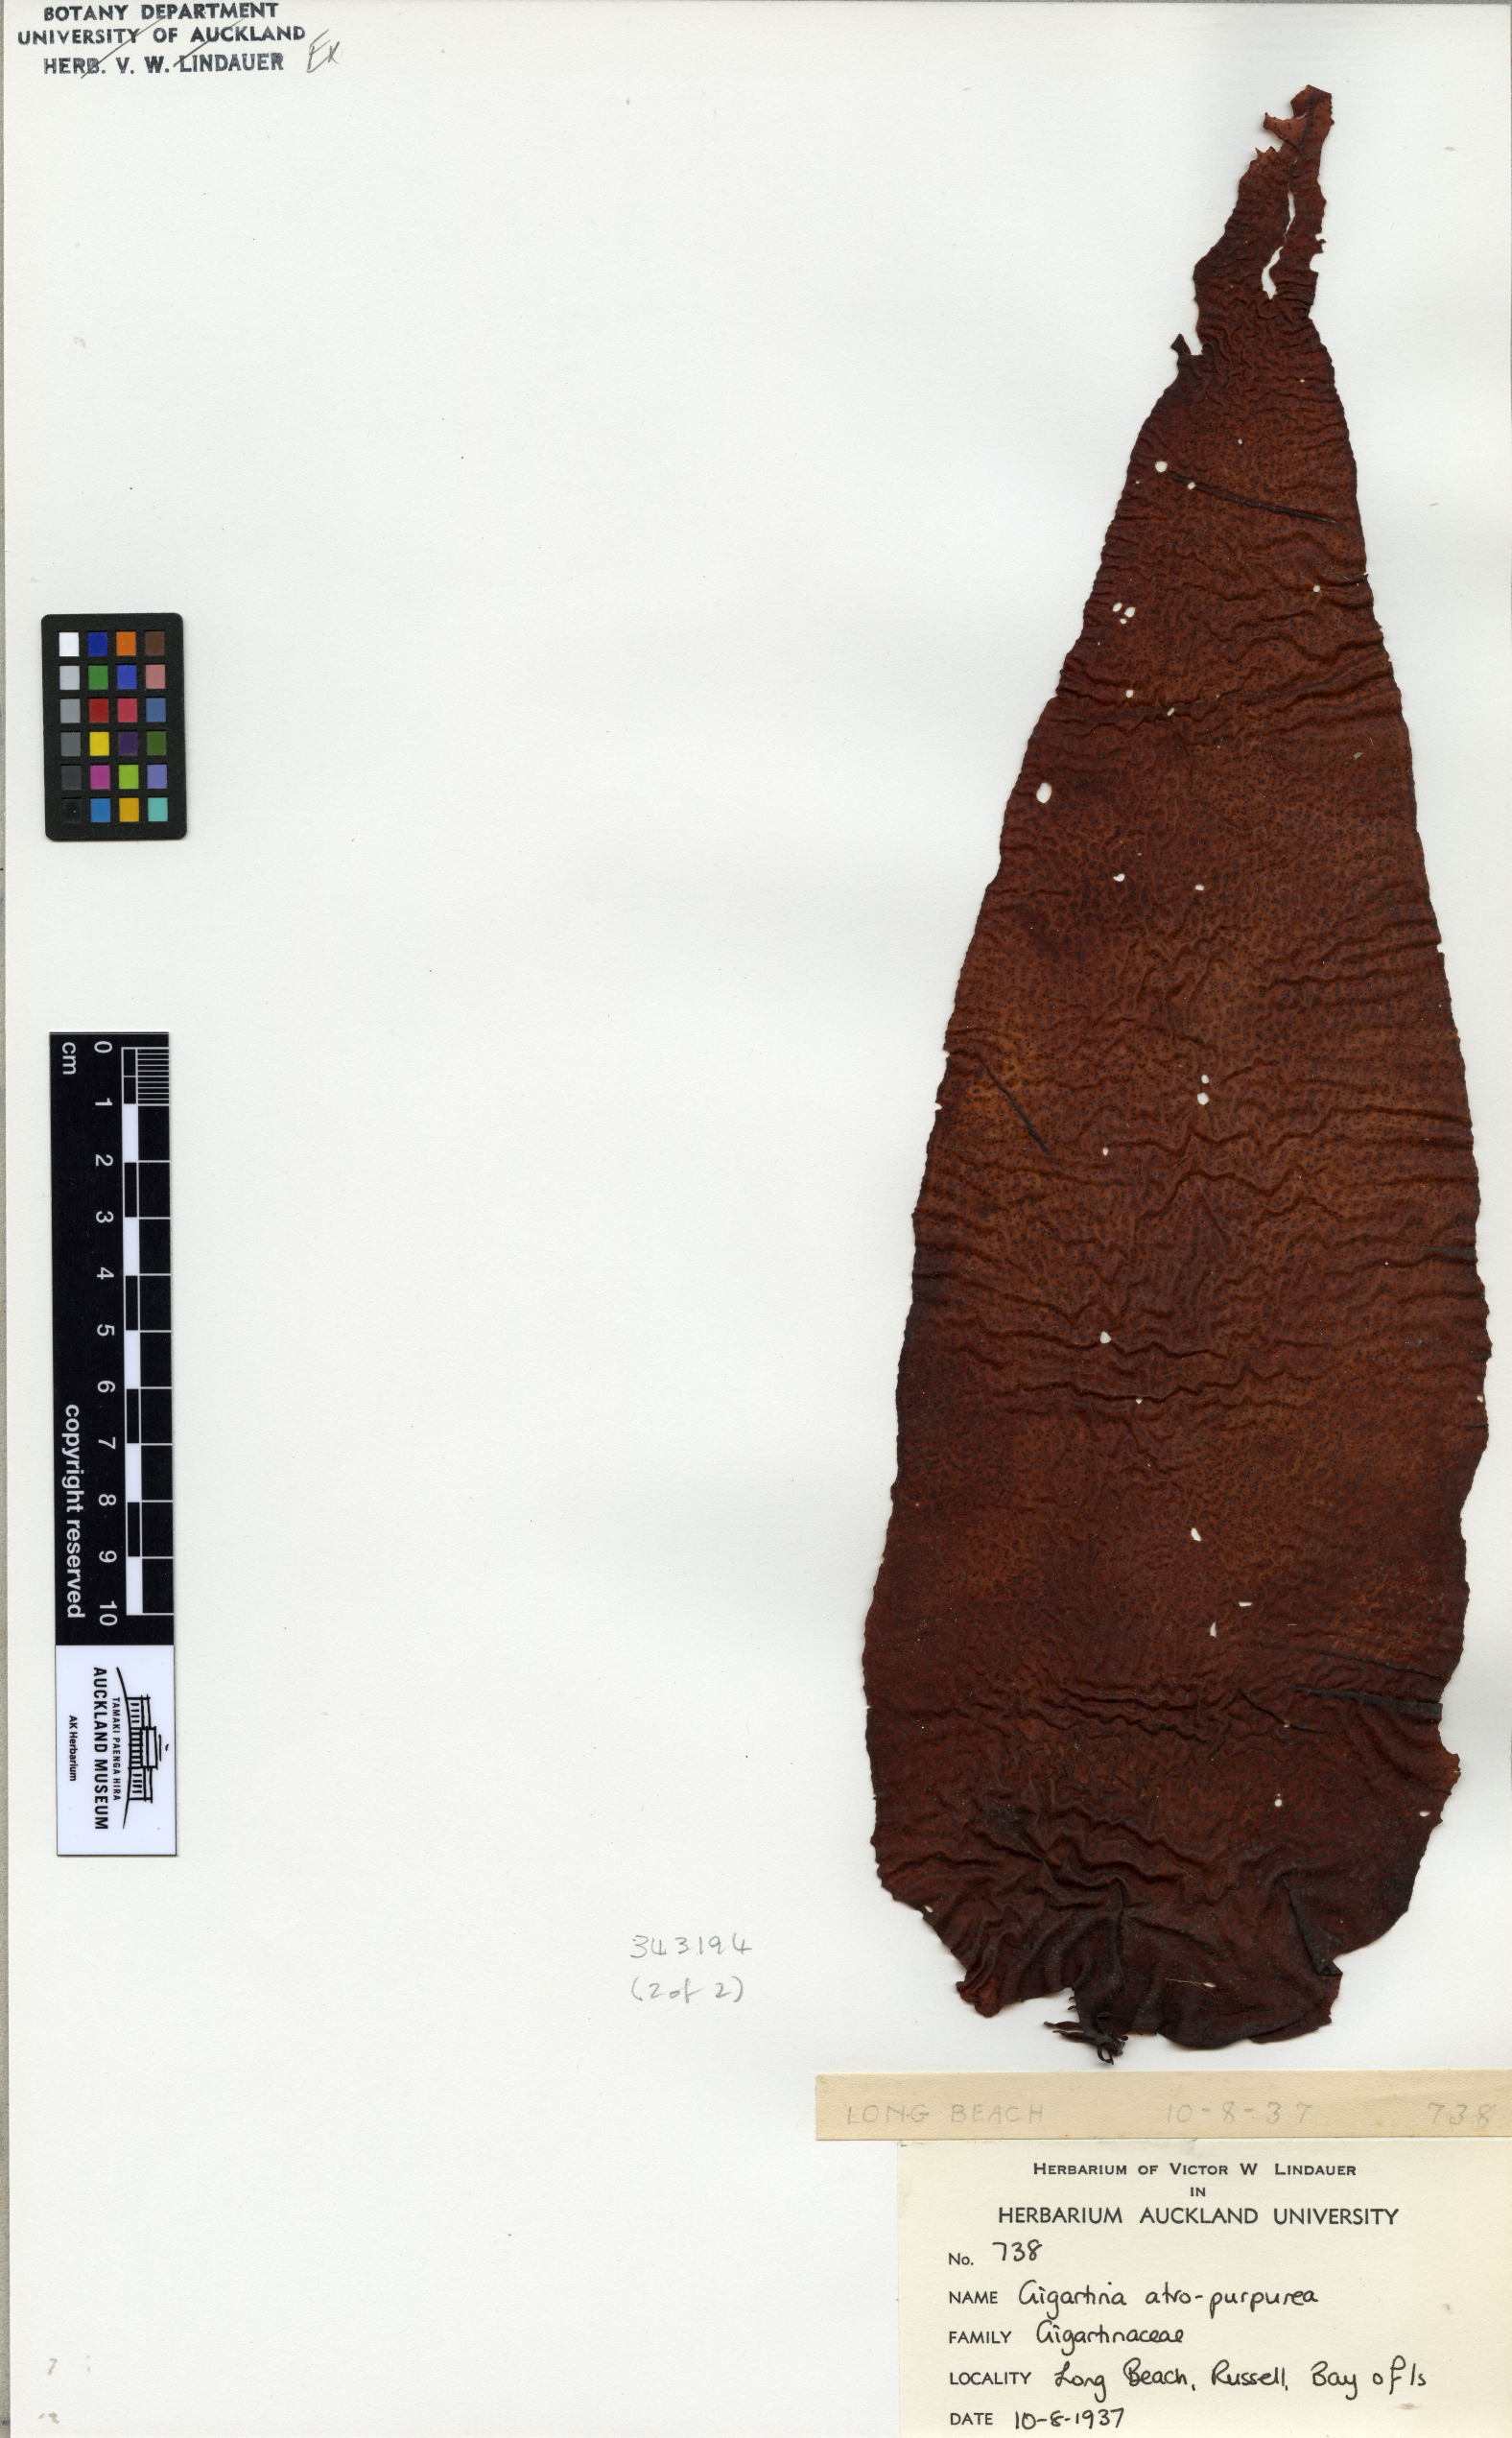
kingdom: Plantae
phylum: Rhodophyta
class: Florideophyceae
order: Gigartinales
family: Gigartinaceae
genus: Gigartina
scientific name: Gigartina
